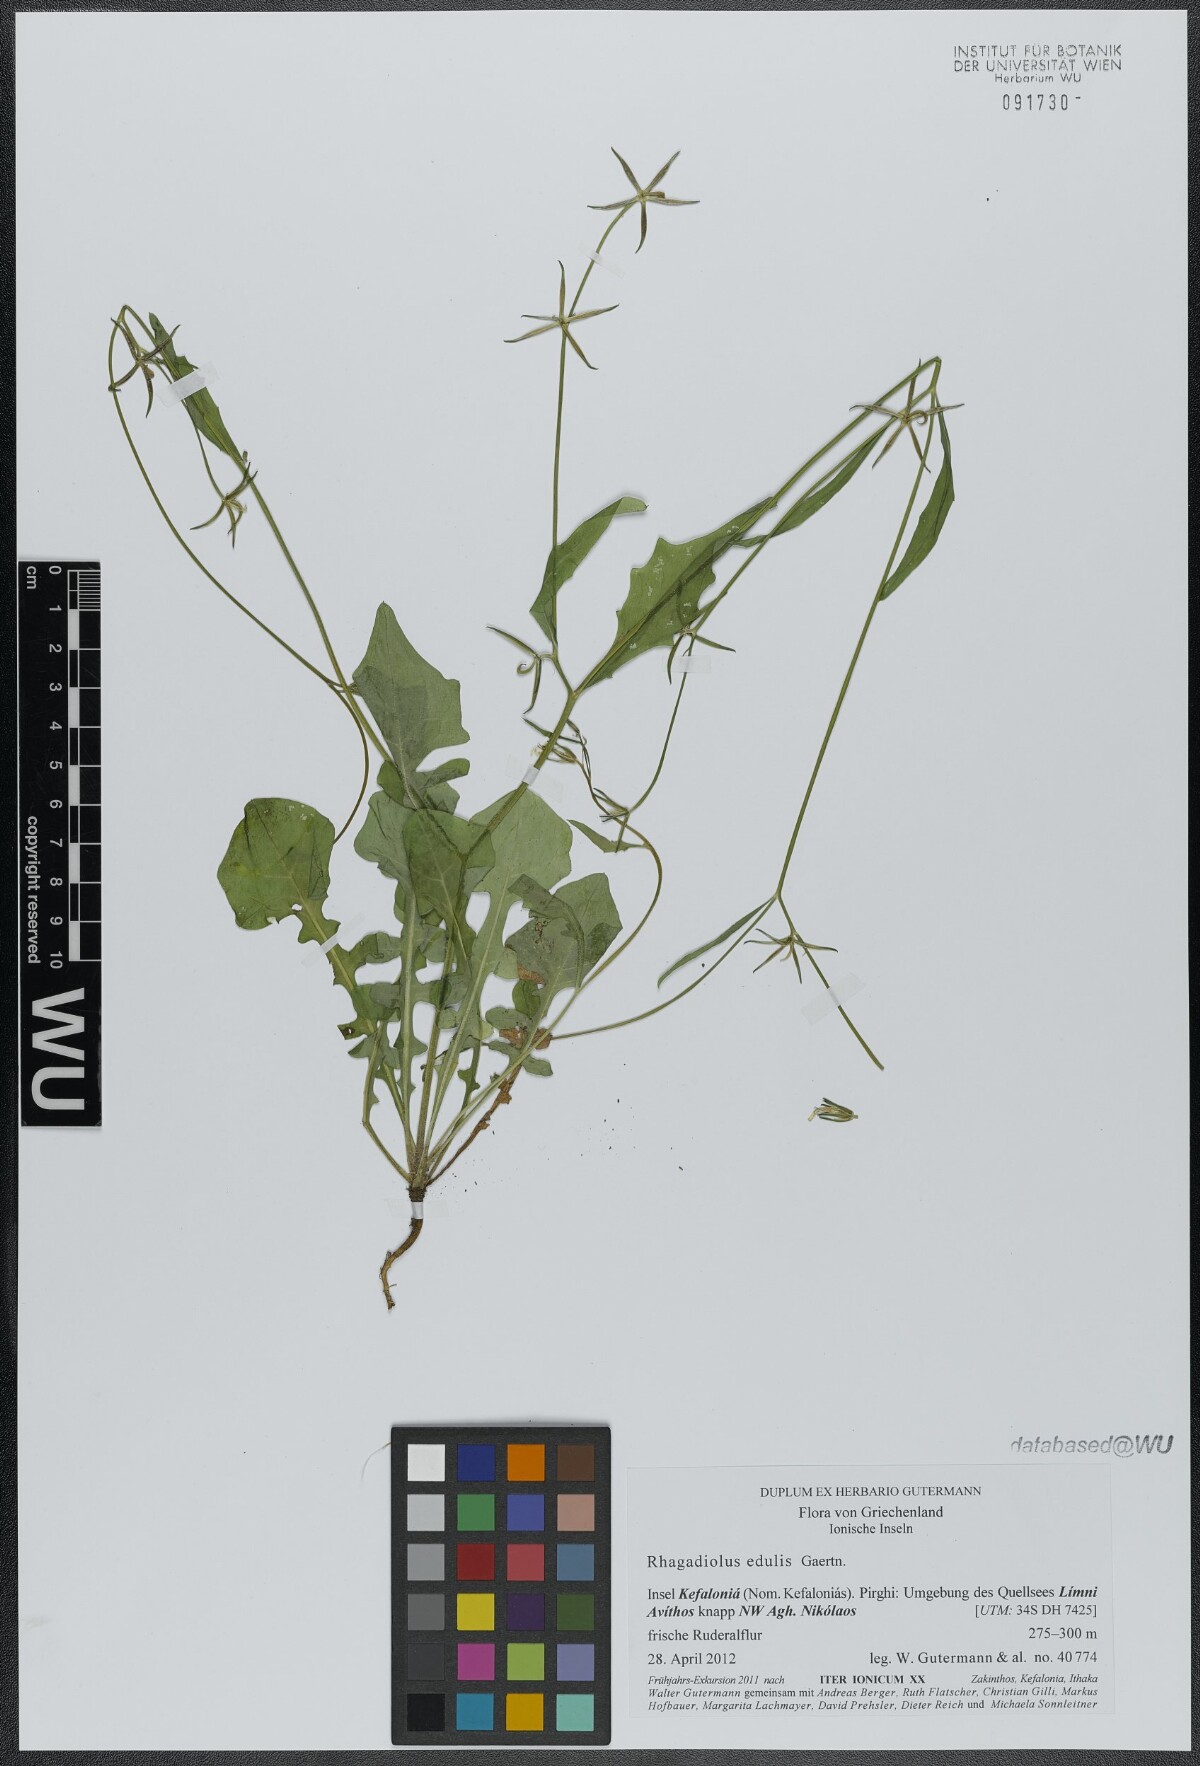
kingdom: Plantae
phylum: Tracheophyta
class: Magnoliopsida
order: Asterales
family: Asteraceae
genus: Rhagadiolus
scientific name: Rhagadiolus edulis
